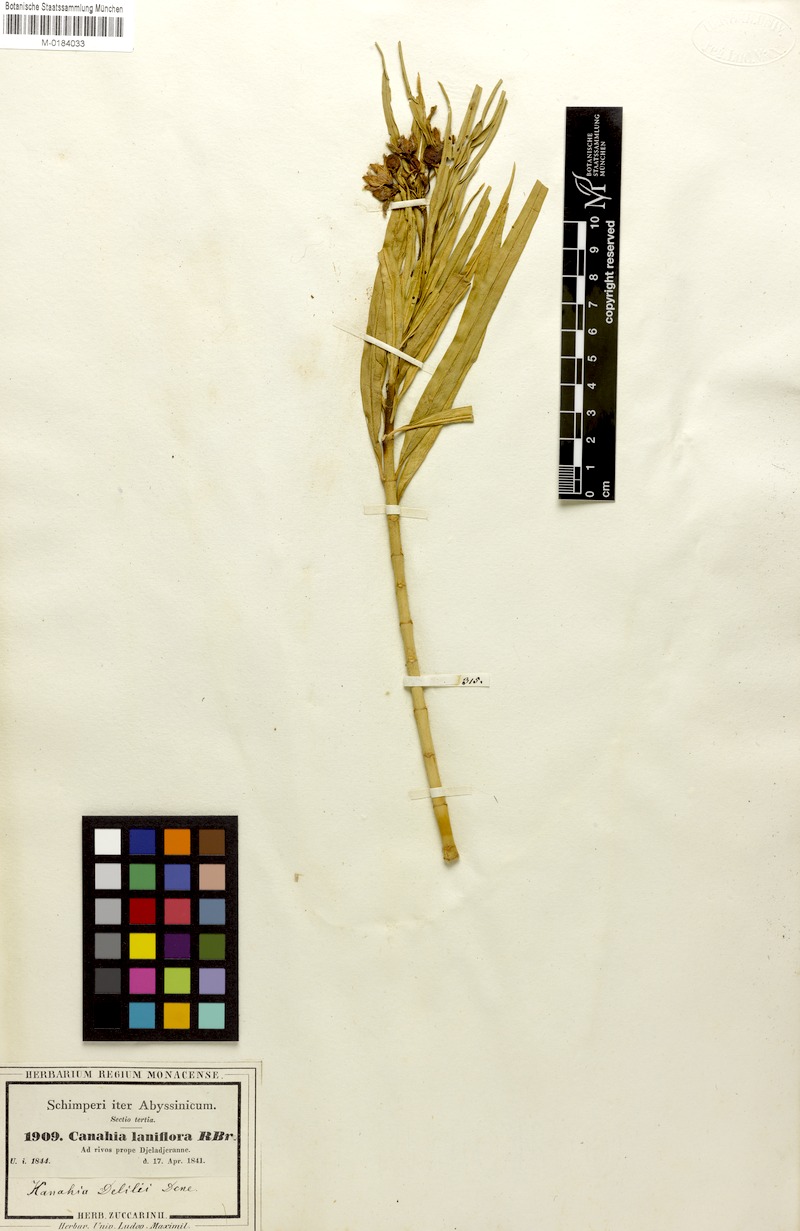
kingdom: Plantae
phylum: Tracheophyta
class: Magnoliopsida
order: Gentianales
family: Apocynaceae
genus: Kanahia
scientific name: Kanahia laniflora
